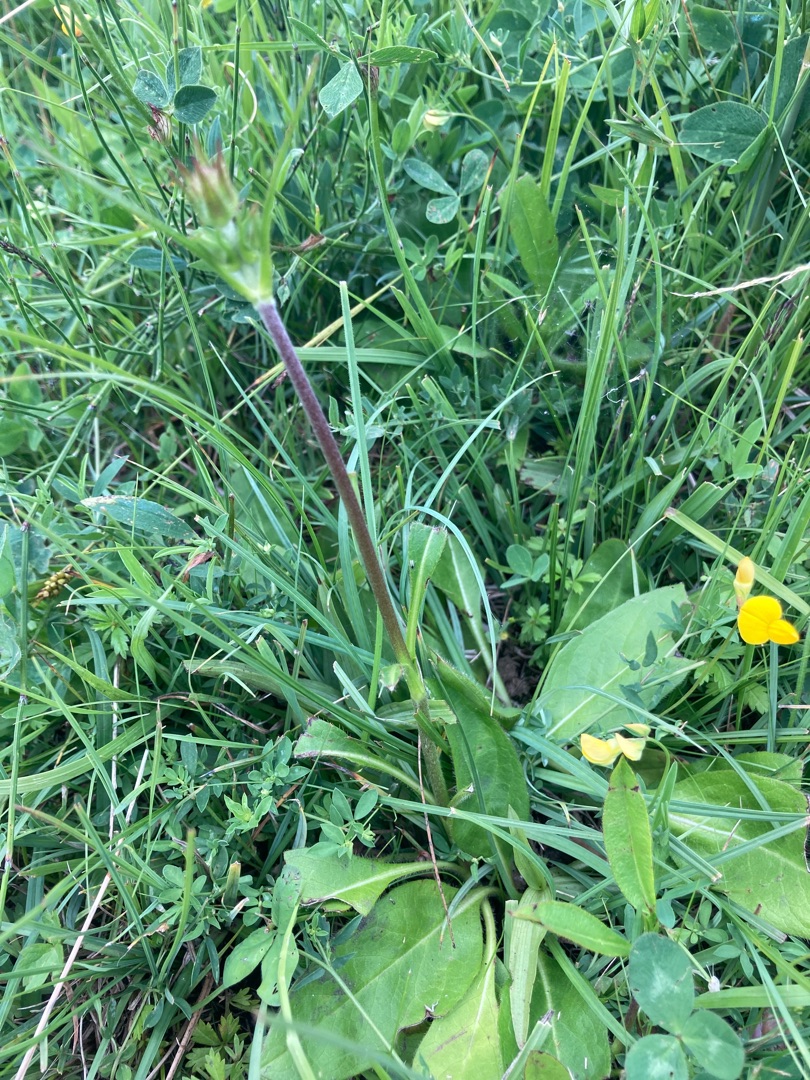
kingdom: Plantae
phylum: Tracheophyta
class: Magnoliopsida
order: Dipsacales
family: Caprifoliaceae
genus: Succisa
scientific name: Succisa pratensis
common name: Djævelsbid
